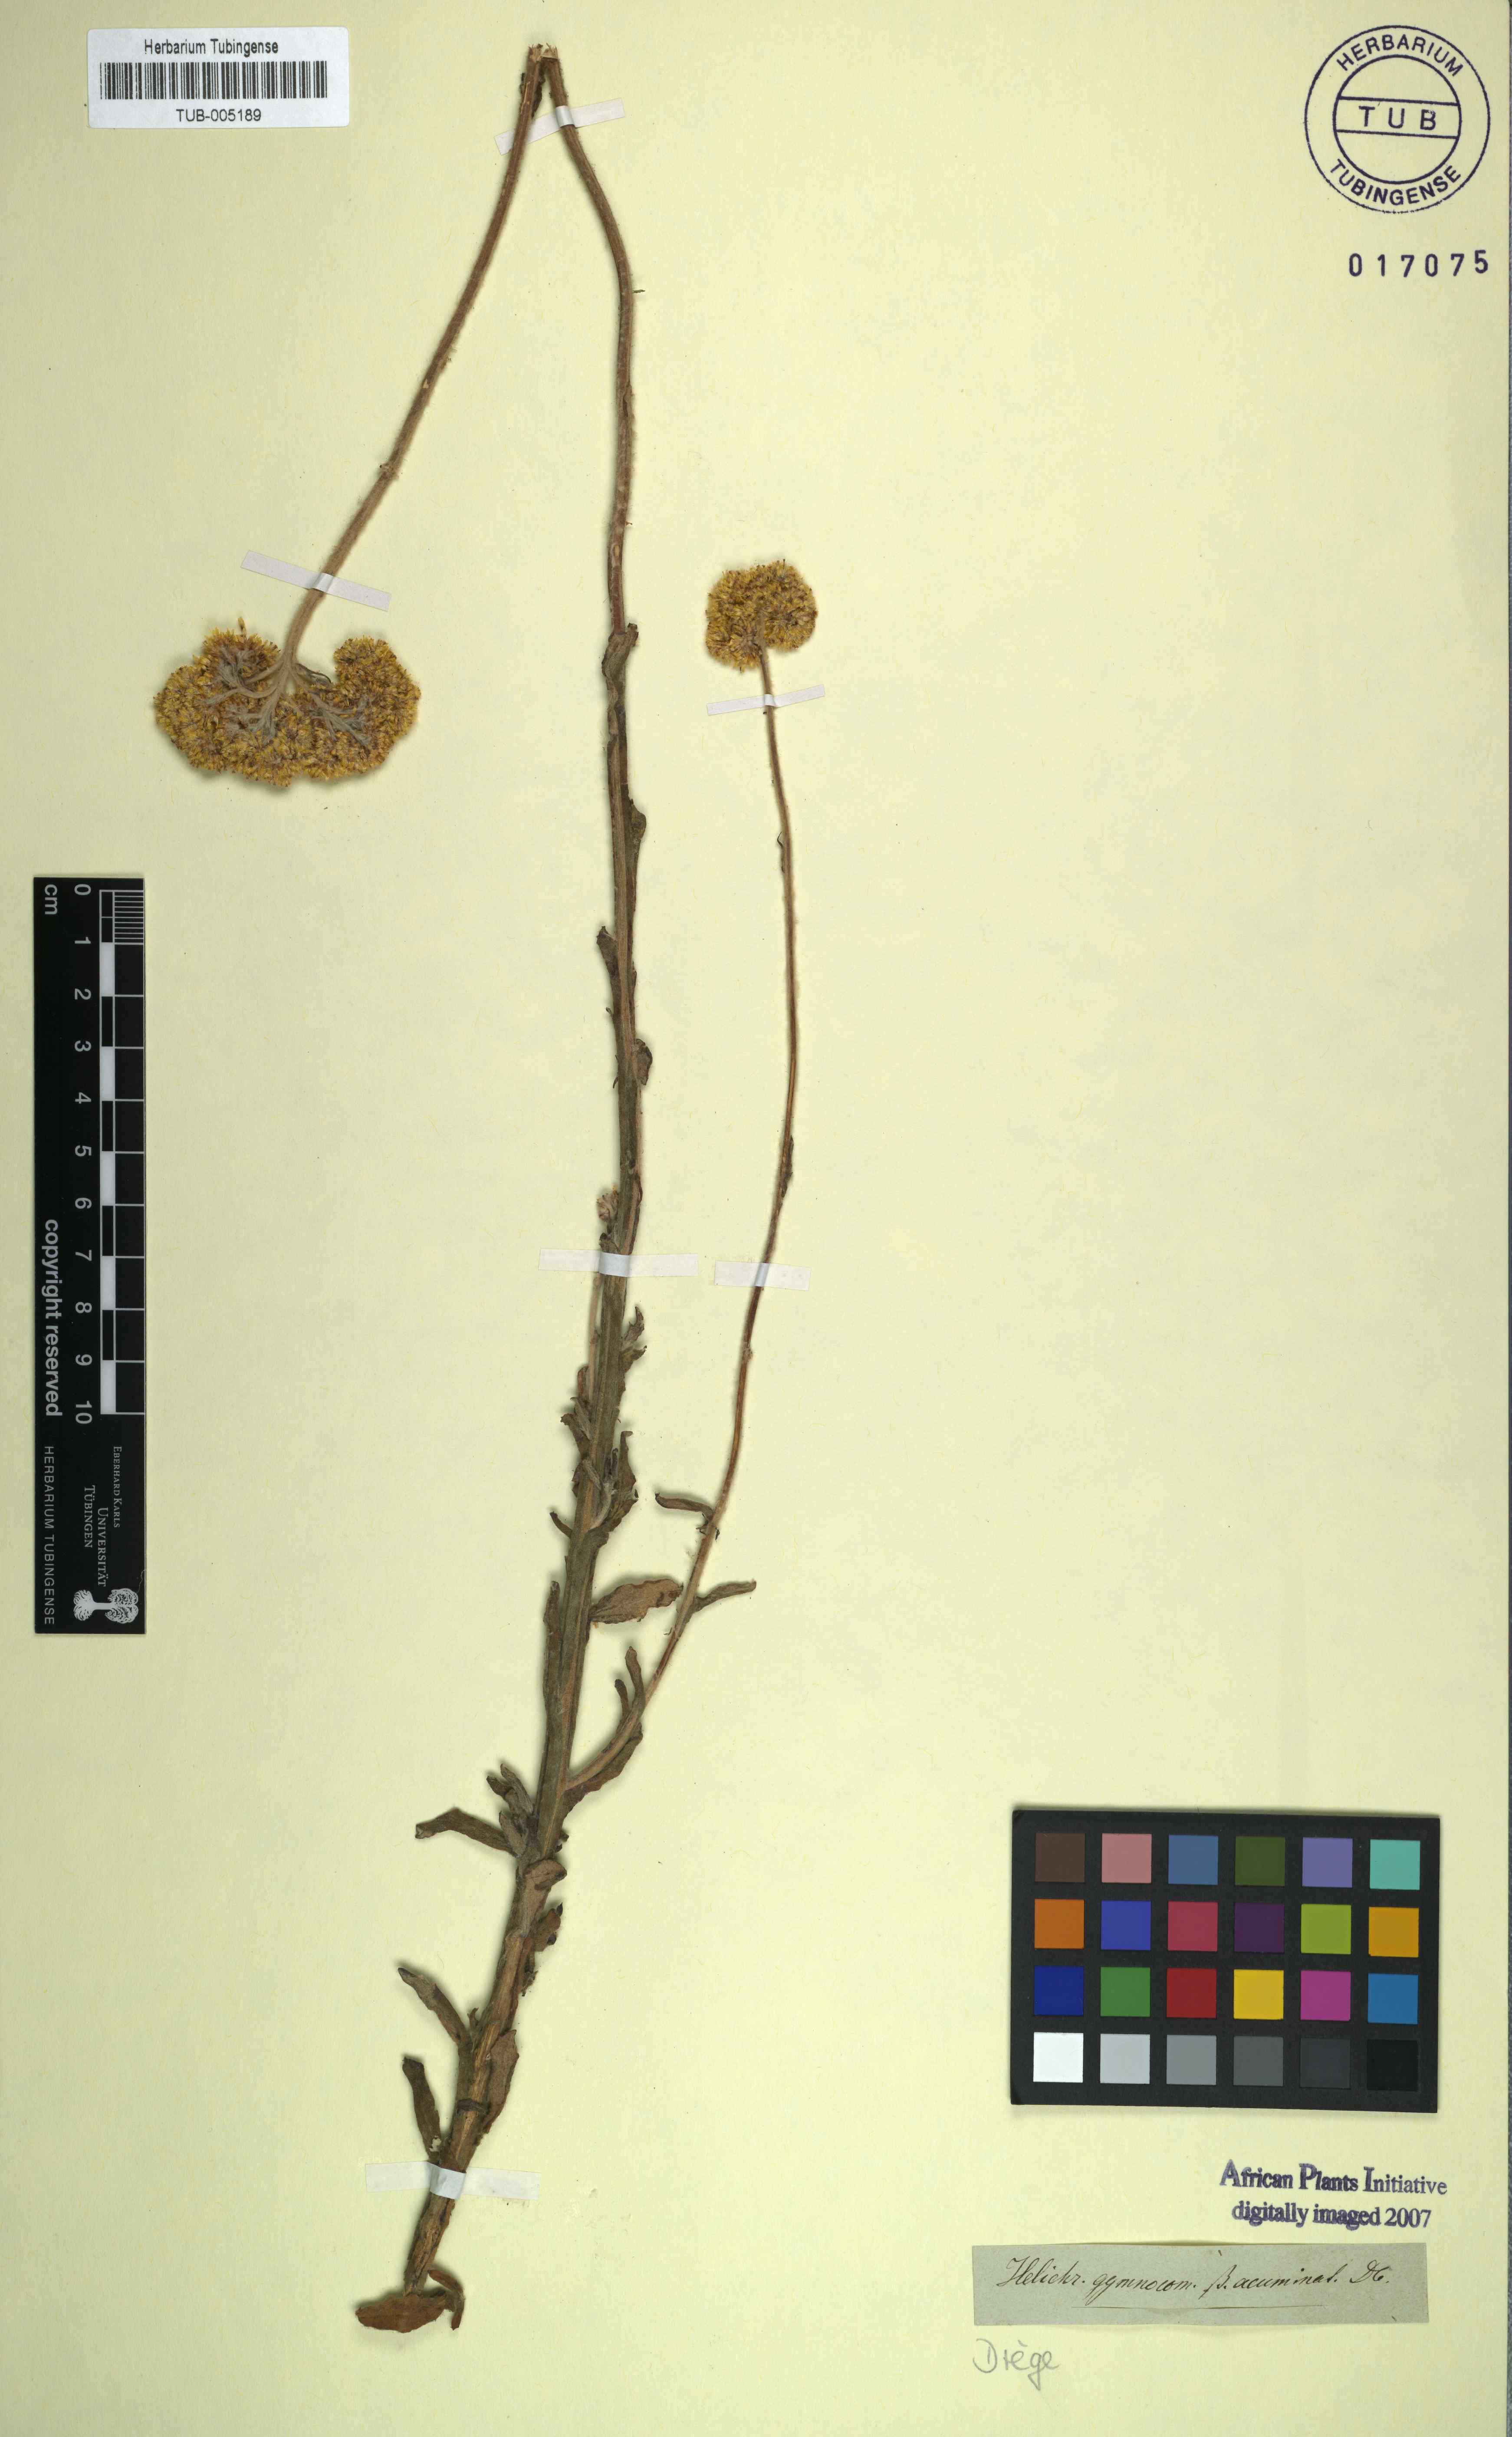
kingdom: Plantae
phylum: Tracheophyta
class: Magnoliopsida
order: Asterales
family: Asteraceae
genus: Helichrysum
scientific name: Helichrysum gymnocomum
